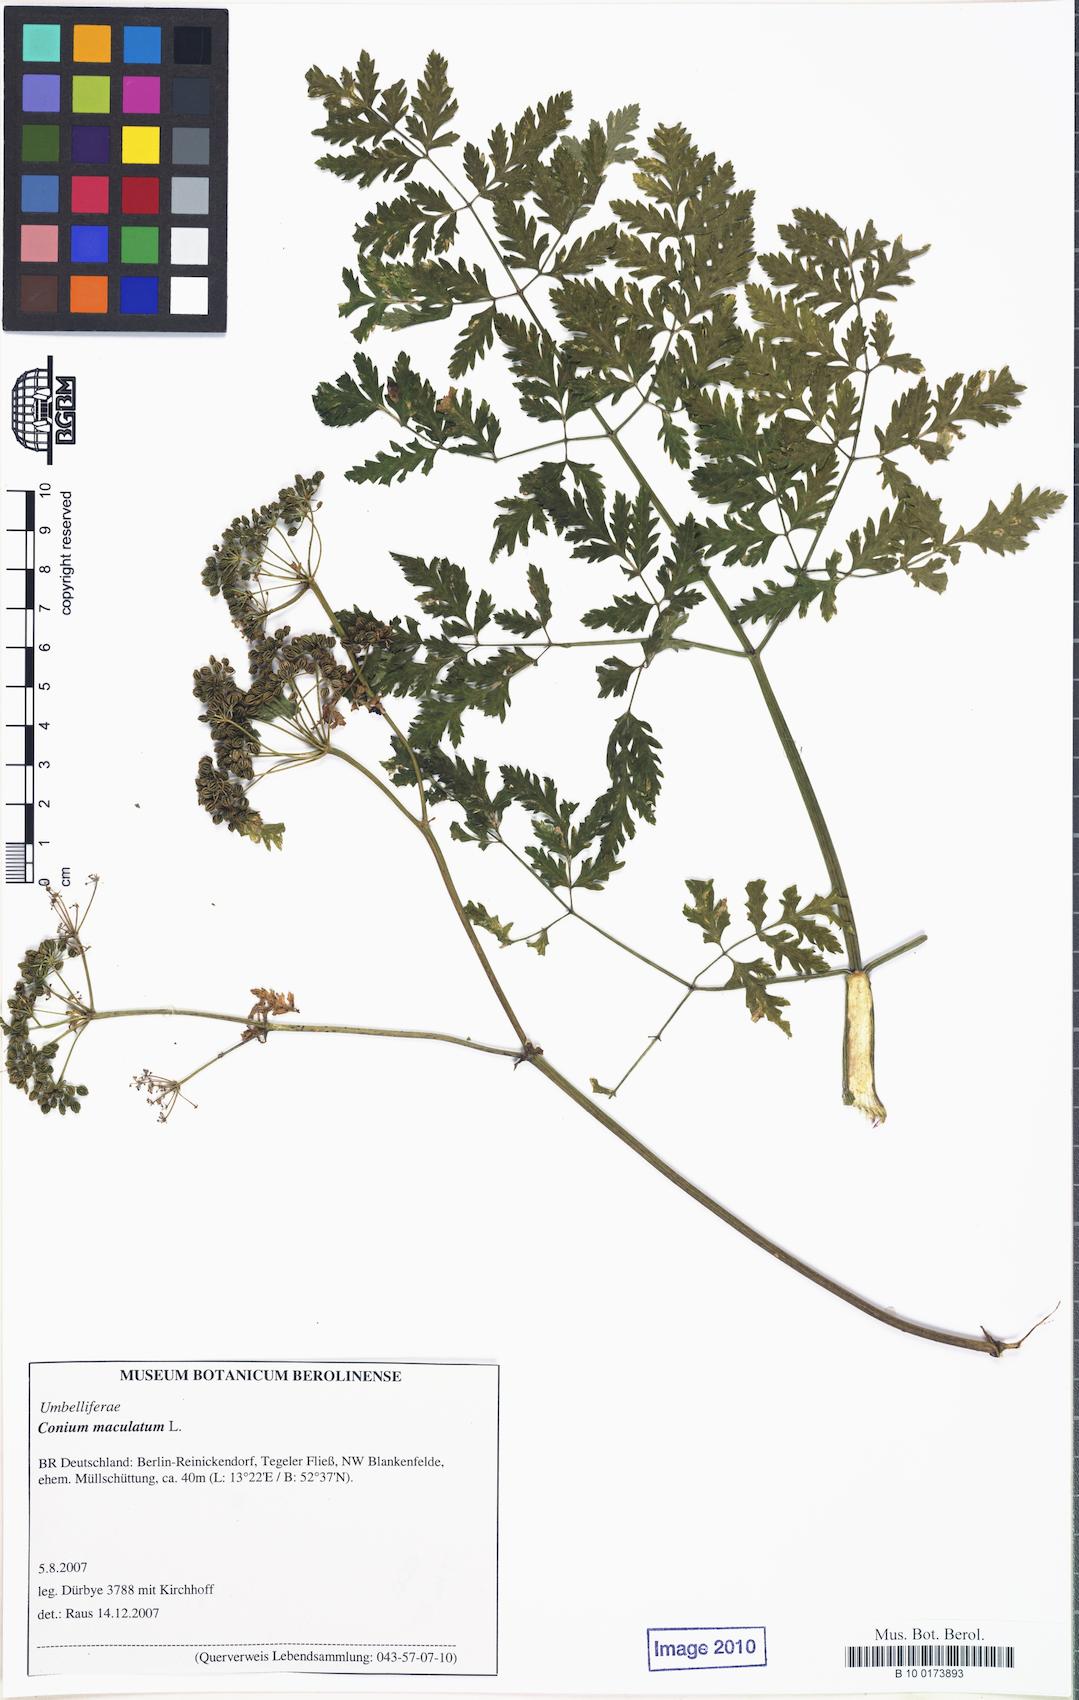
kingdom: Plantae
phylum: Tracheophyta
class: Magnoliopsida
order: Apiales
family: Apiaceae
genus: Conium
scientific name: Conium maculatum
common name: Hemlock
